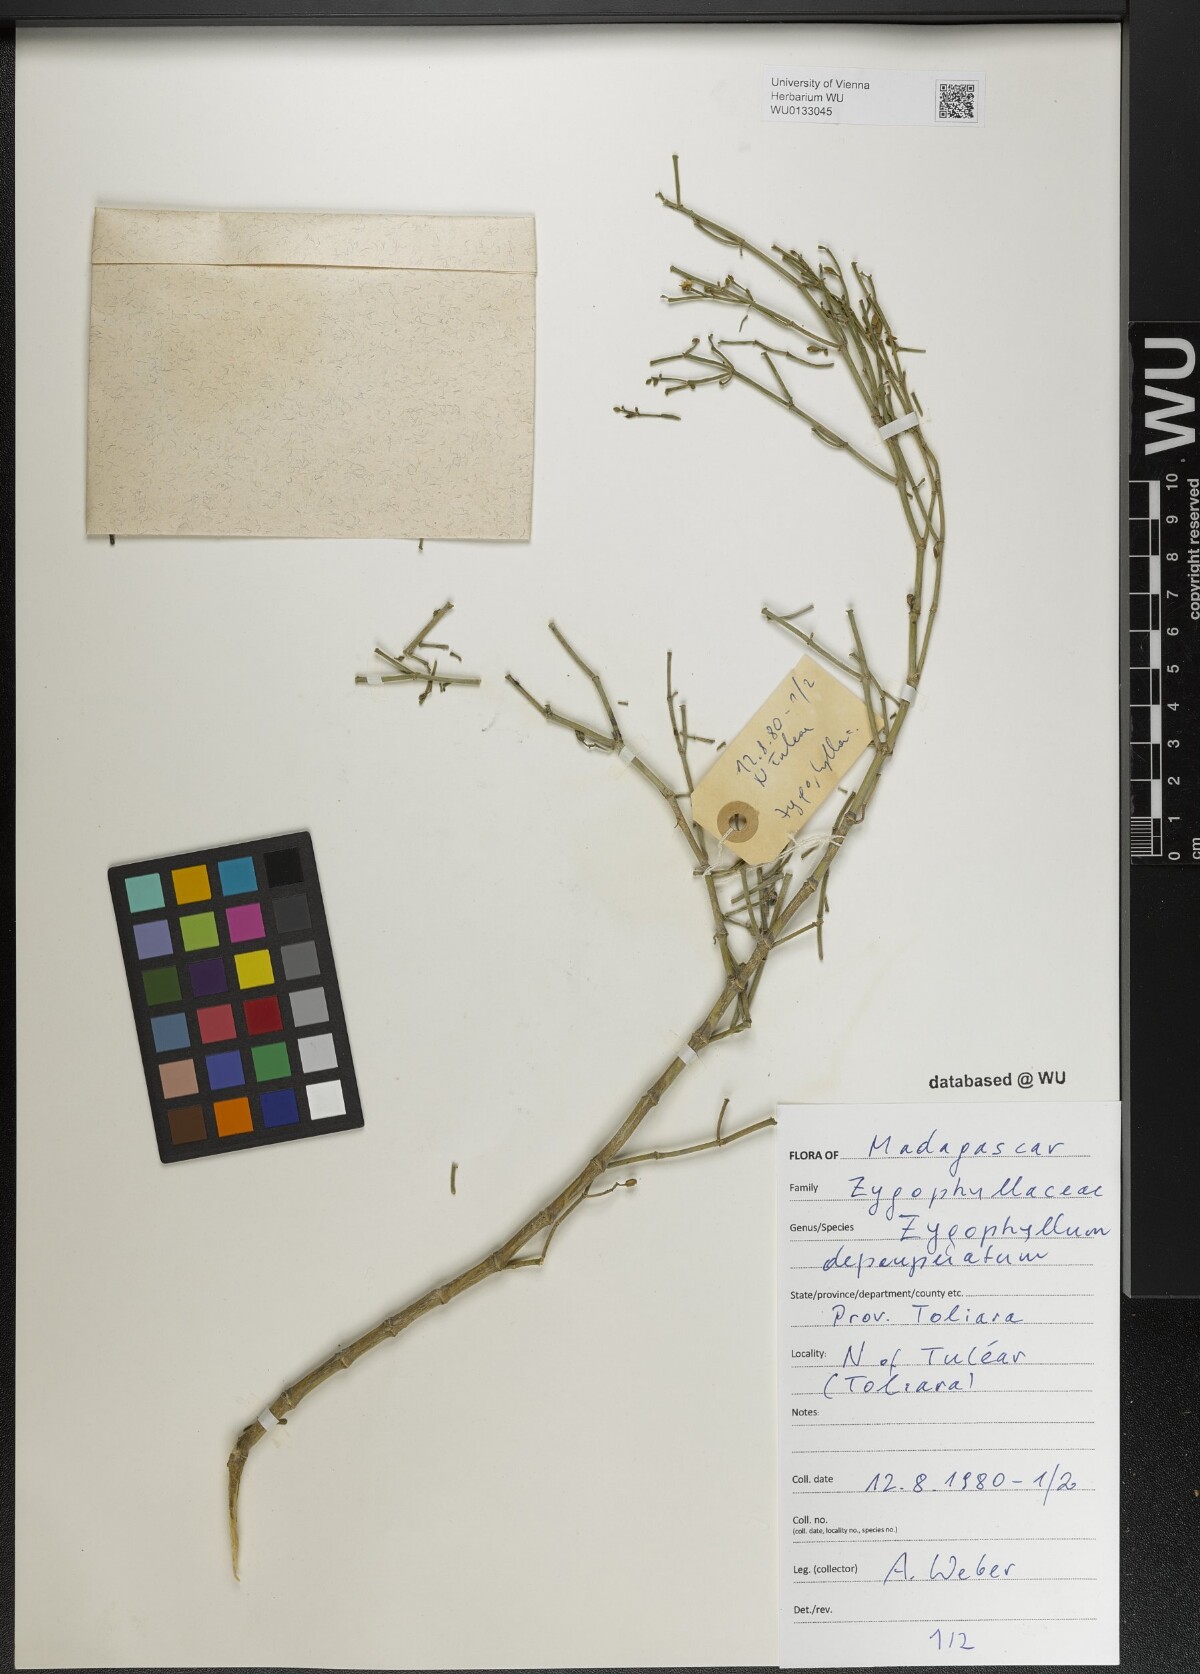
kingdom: Plantae
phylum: Tracheophyta
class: Magnoliopsida
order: Zygophyllales
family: Zygophyllaceae
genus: Tetraena
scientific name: Tetraena madagascariensis
